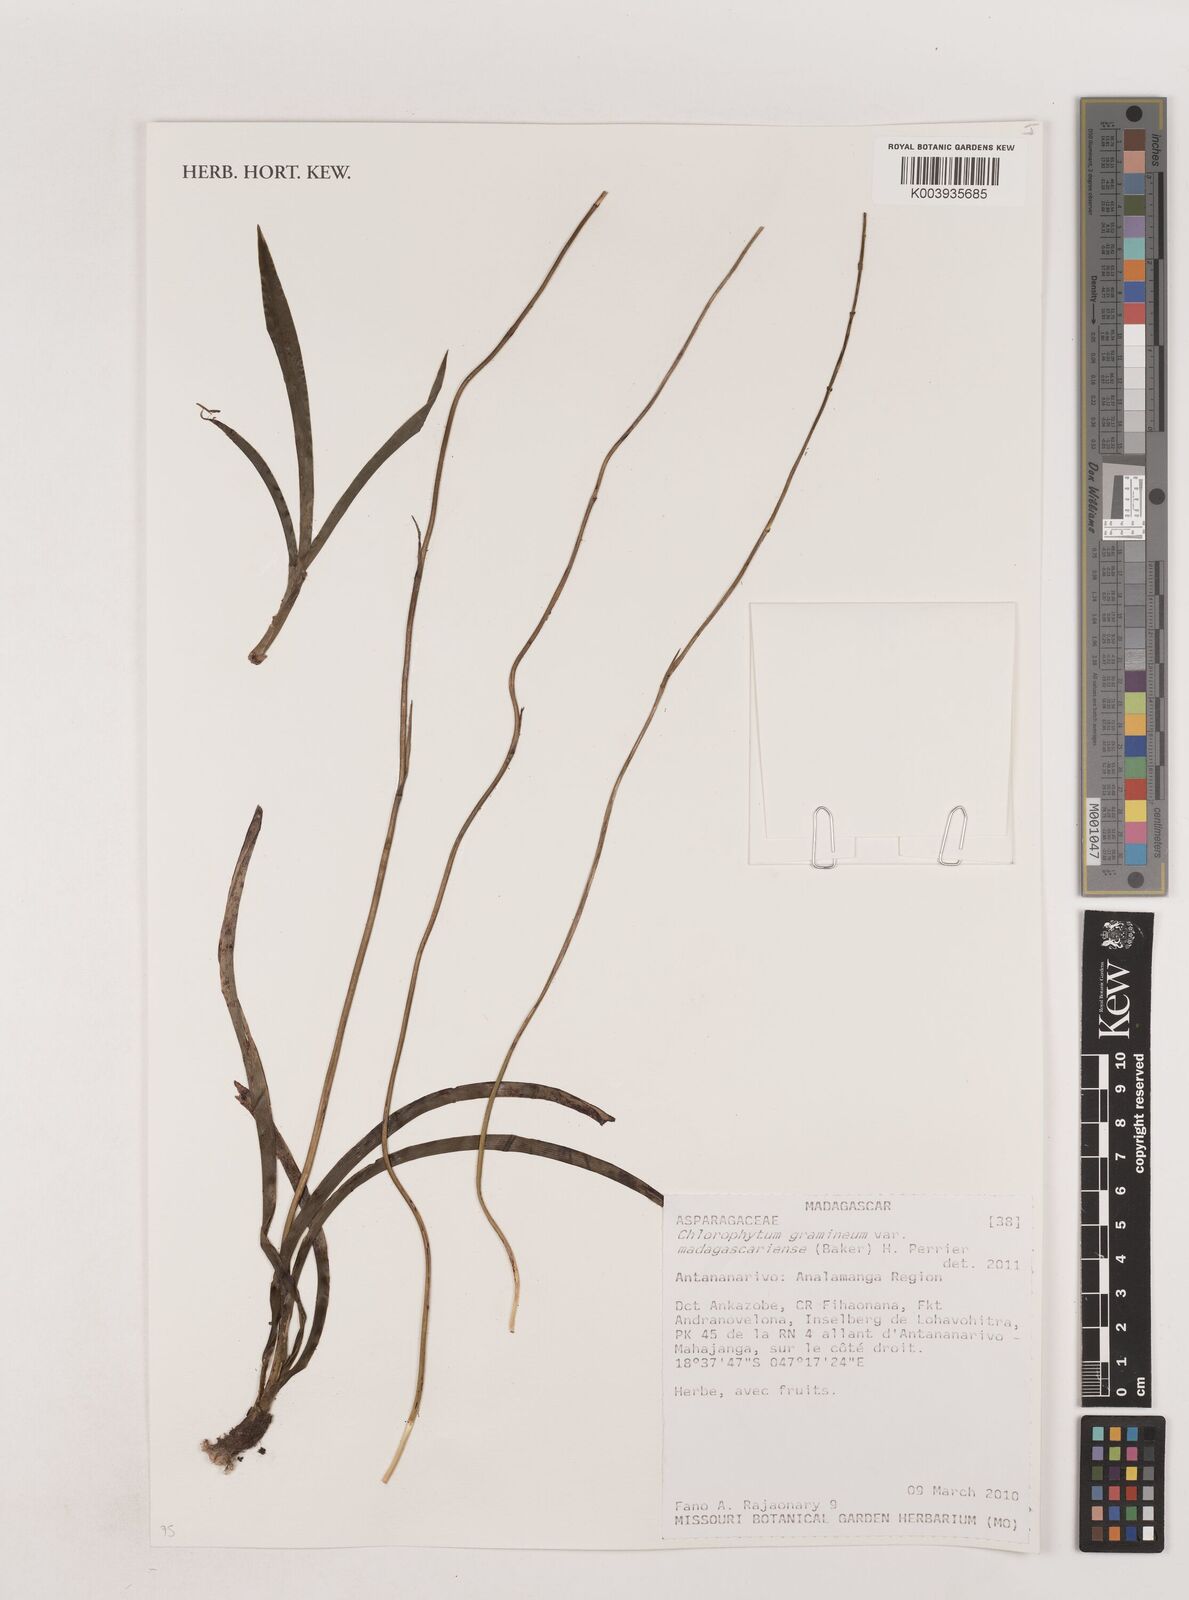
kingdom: Plantae
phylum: Tracheophyta
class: Liliopsida
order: Asparagales
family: Asparagaceae
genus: Chlorophytum
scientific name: Chlorophytum madagascariense
